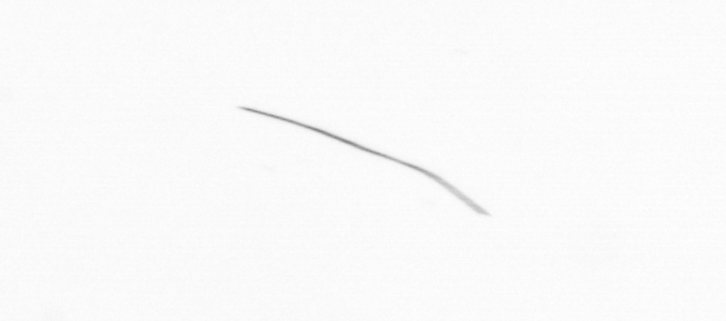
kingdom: Chromista
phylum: Ochrophyta
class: Bacillariophyceae
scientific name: Bacillariophyceae
